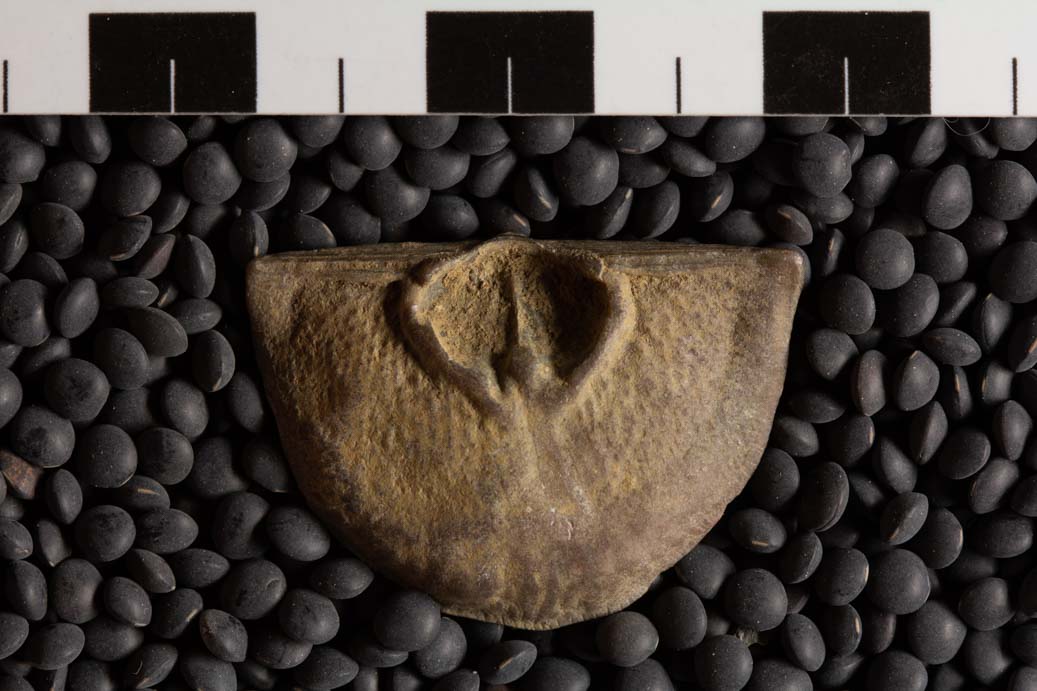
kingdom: Animalia
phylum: Brachiopoda
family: Strophomenidae
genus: Strophomena
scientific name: Strophomena
